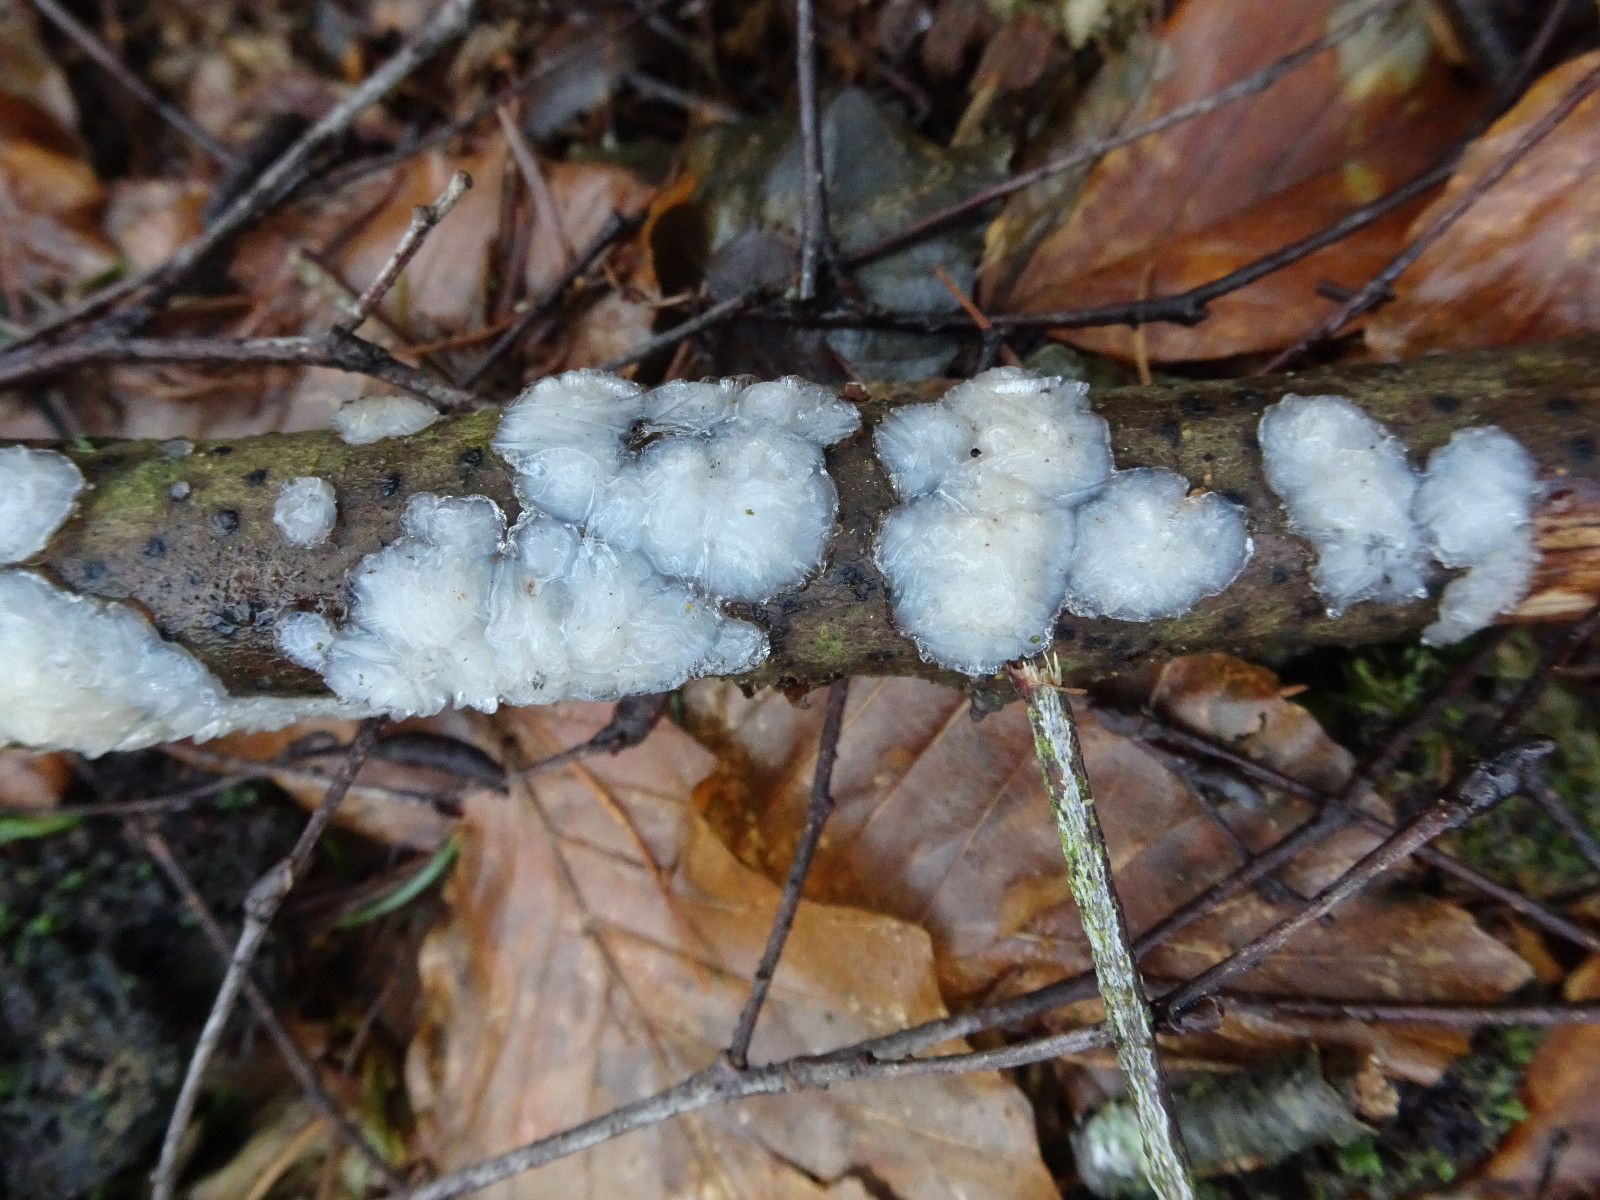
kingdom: Fungi
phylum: Basidiomycota
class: Agaricomycetes
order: Auriculariales
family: Auriculariaceae
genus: Exidia
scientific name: Exidia thuretiana
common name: hvidlig bævretop
